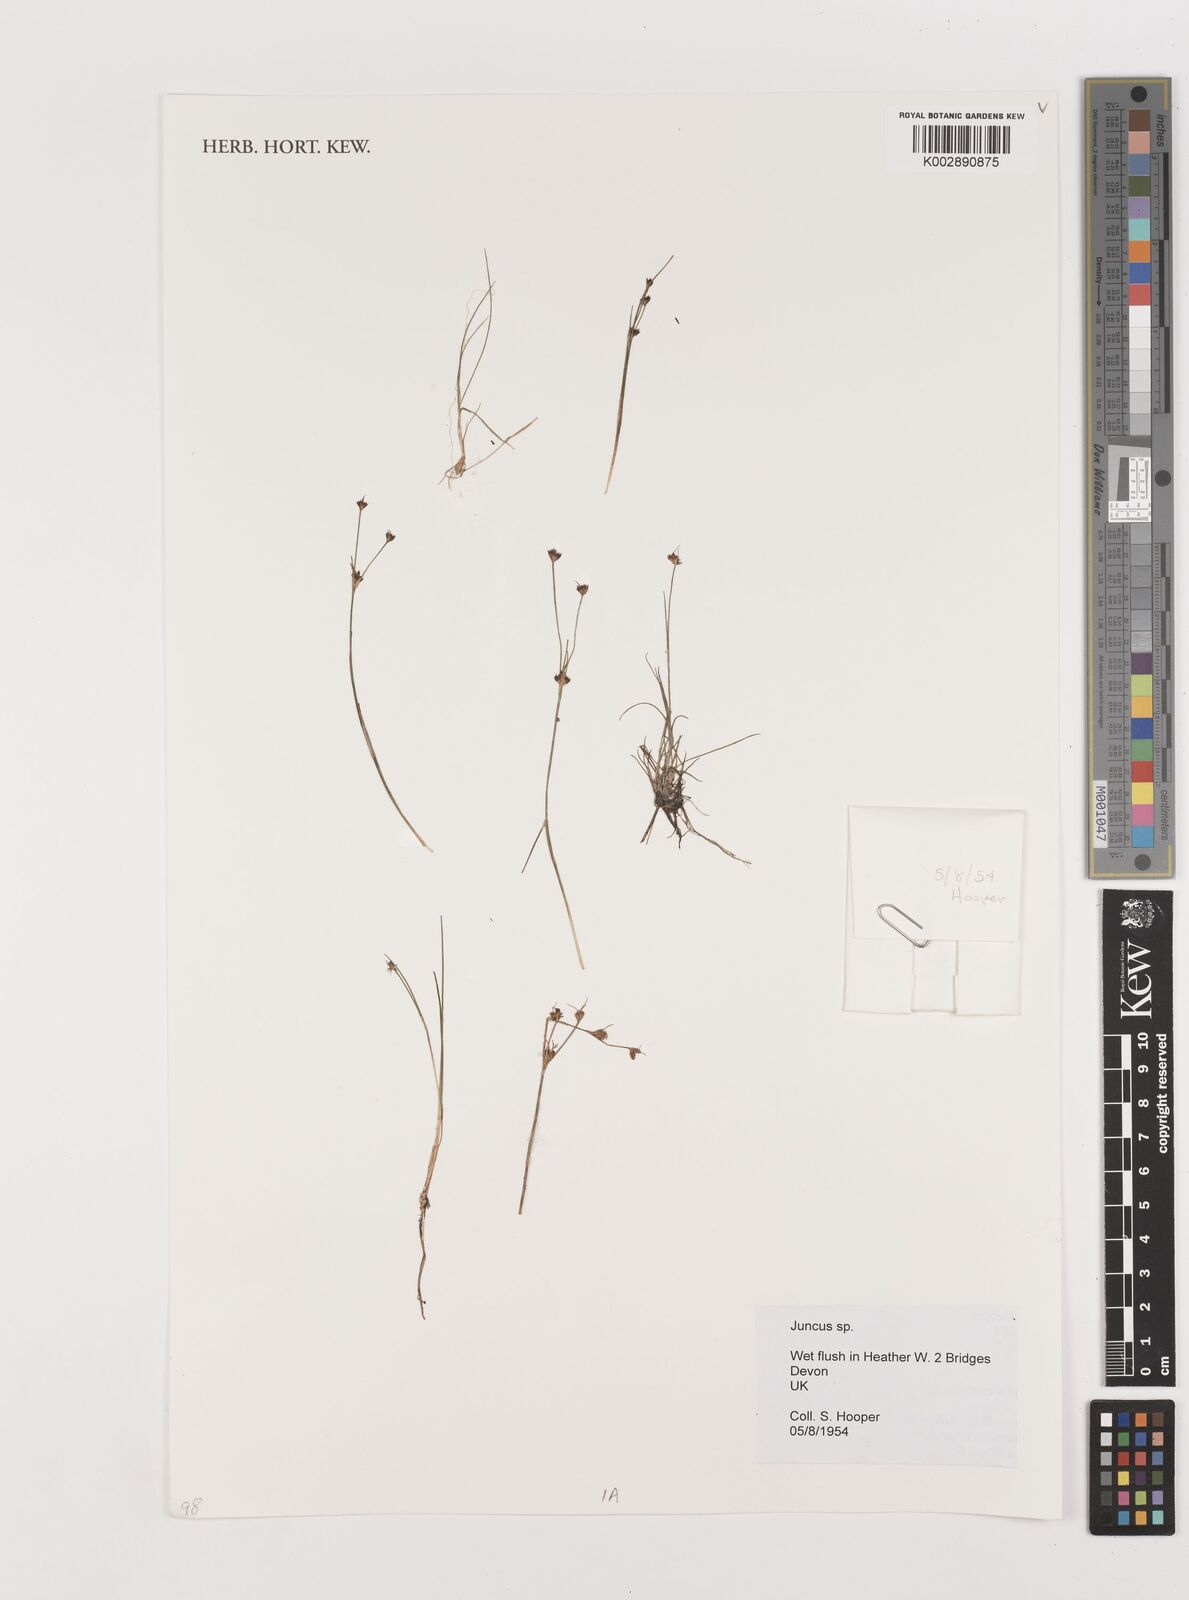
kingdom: Plantae
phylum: Tracheophyta
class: Liliopsida
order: Poales
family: Juncaceae
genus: Juncus
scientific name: Juncus
